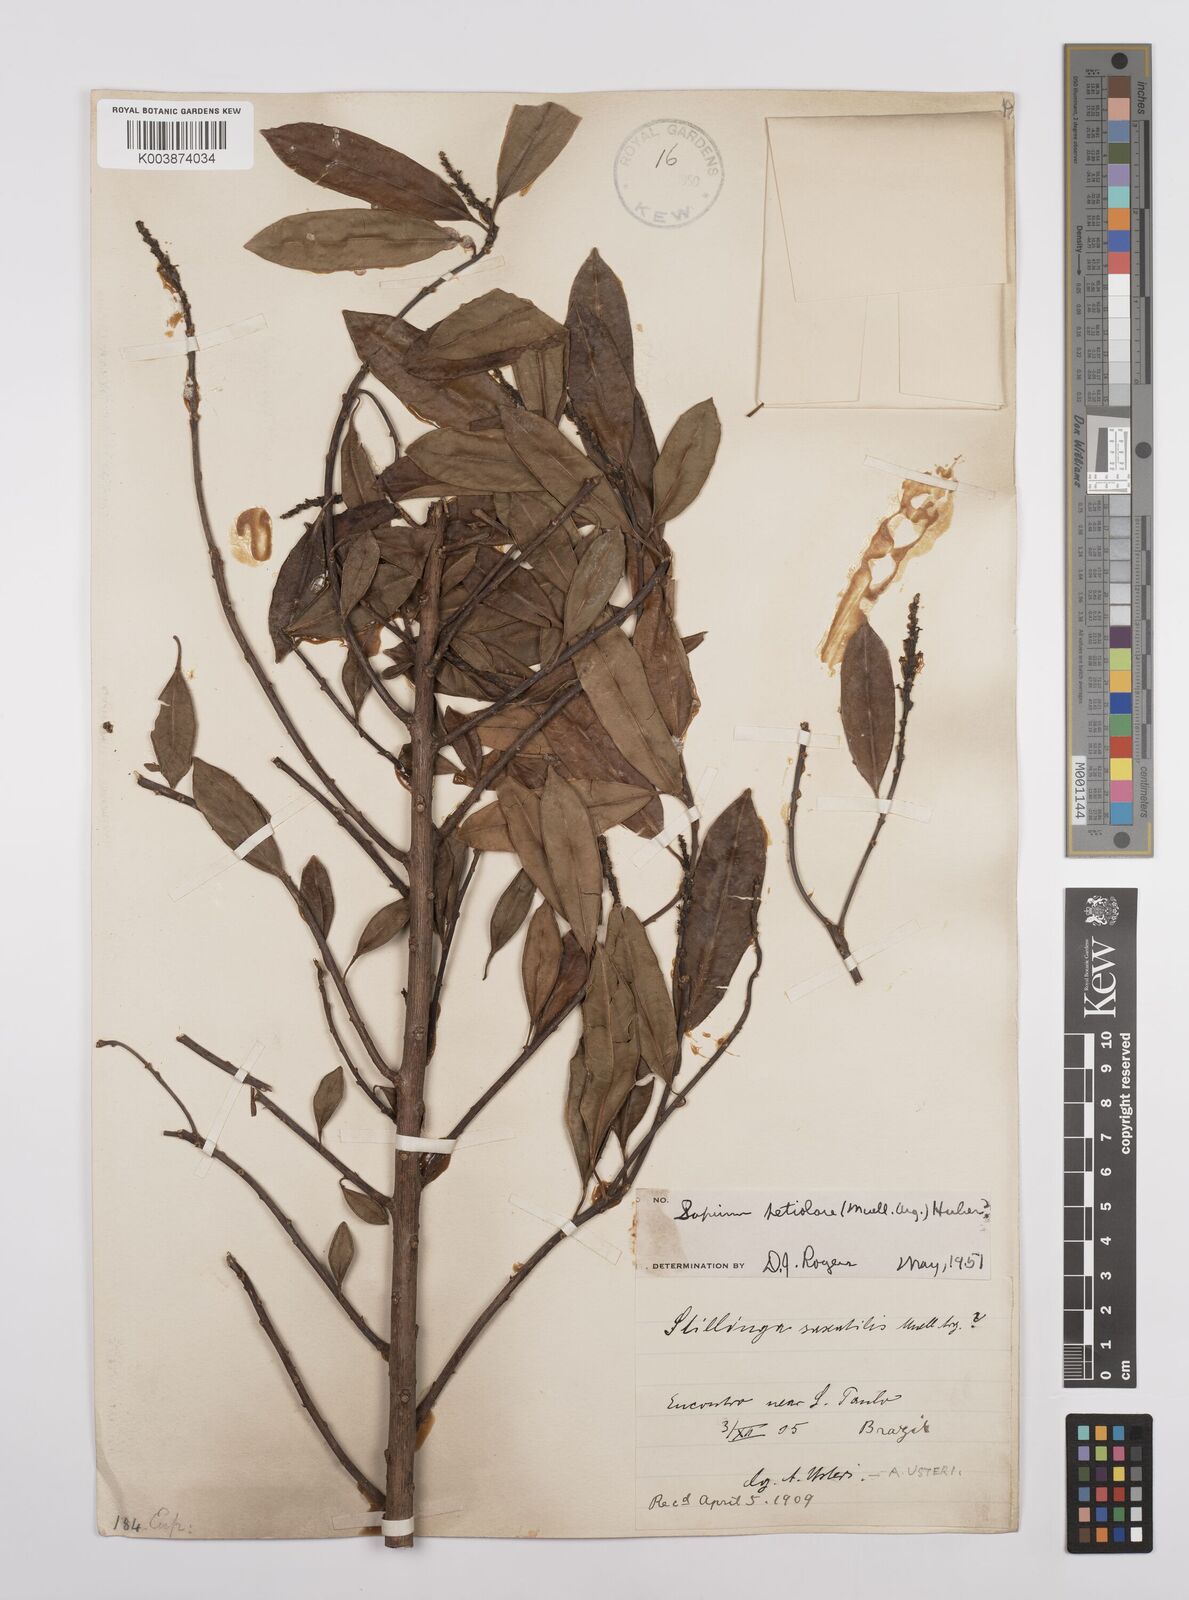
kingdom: Plantae
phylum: Tracheophyta
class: Magnoliopsida
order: Malpighiales
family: Euphorbiaceae
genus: Sapium
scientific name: Sapium glandulosum
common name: Milktree
